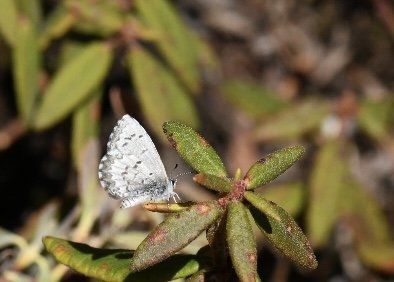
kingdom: Animalia
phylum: Arthropoda
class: Insecta
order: Lepidoptera
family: Lycaenidae
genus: Celastrina
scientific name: Celastrina lucia
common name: Northern Spring Azure
